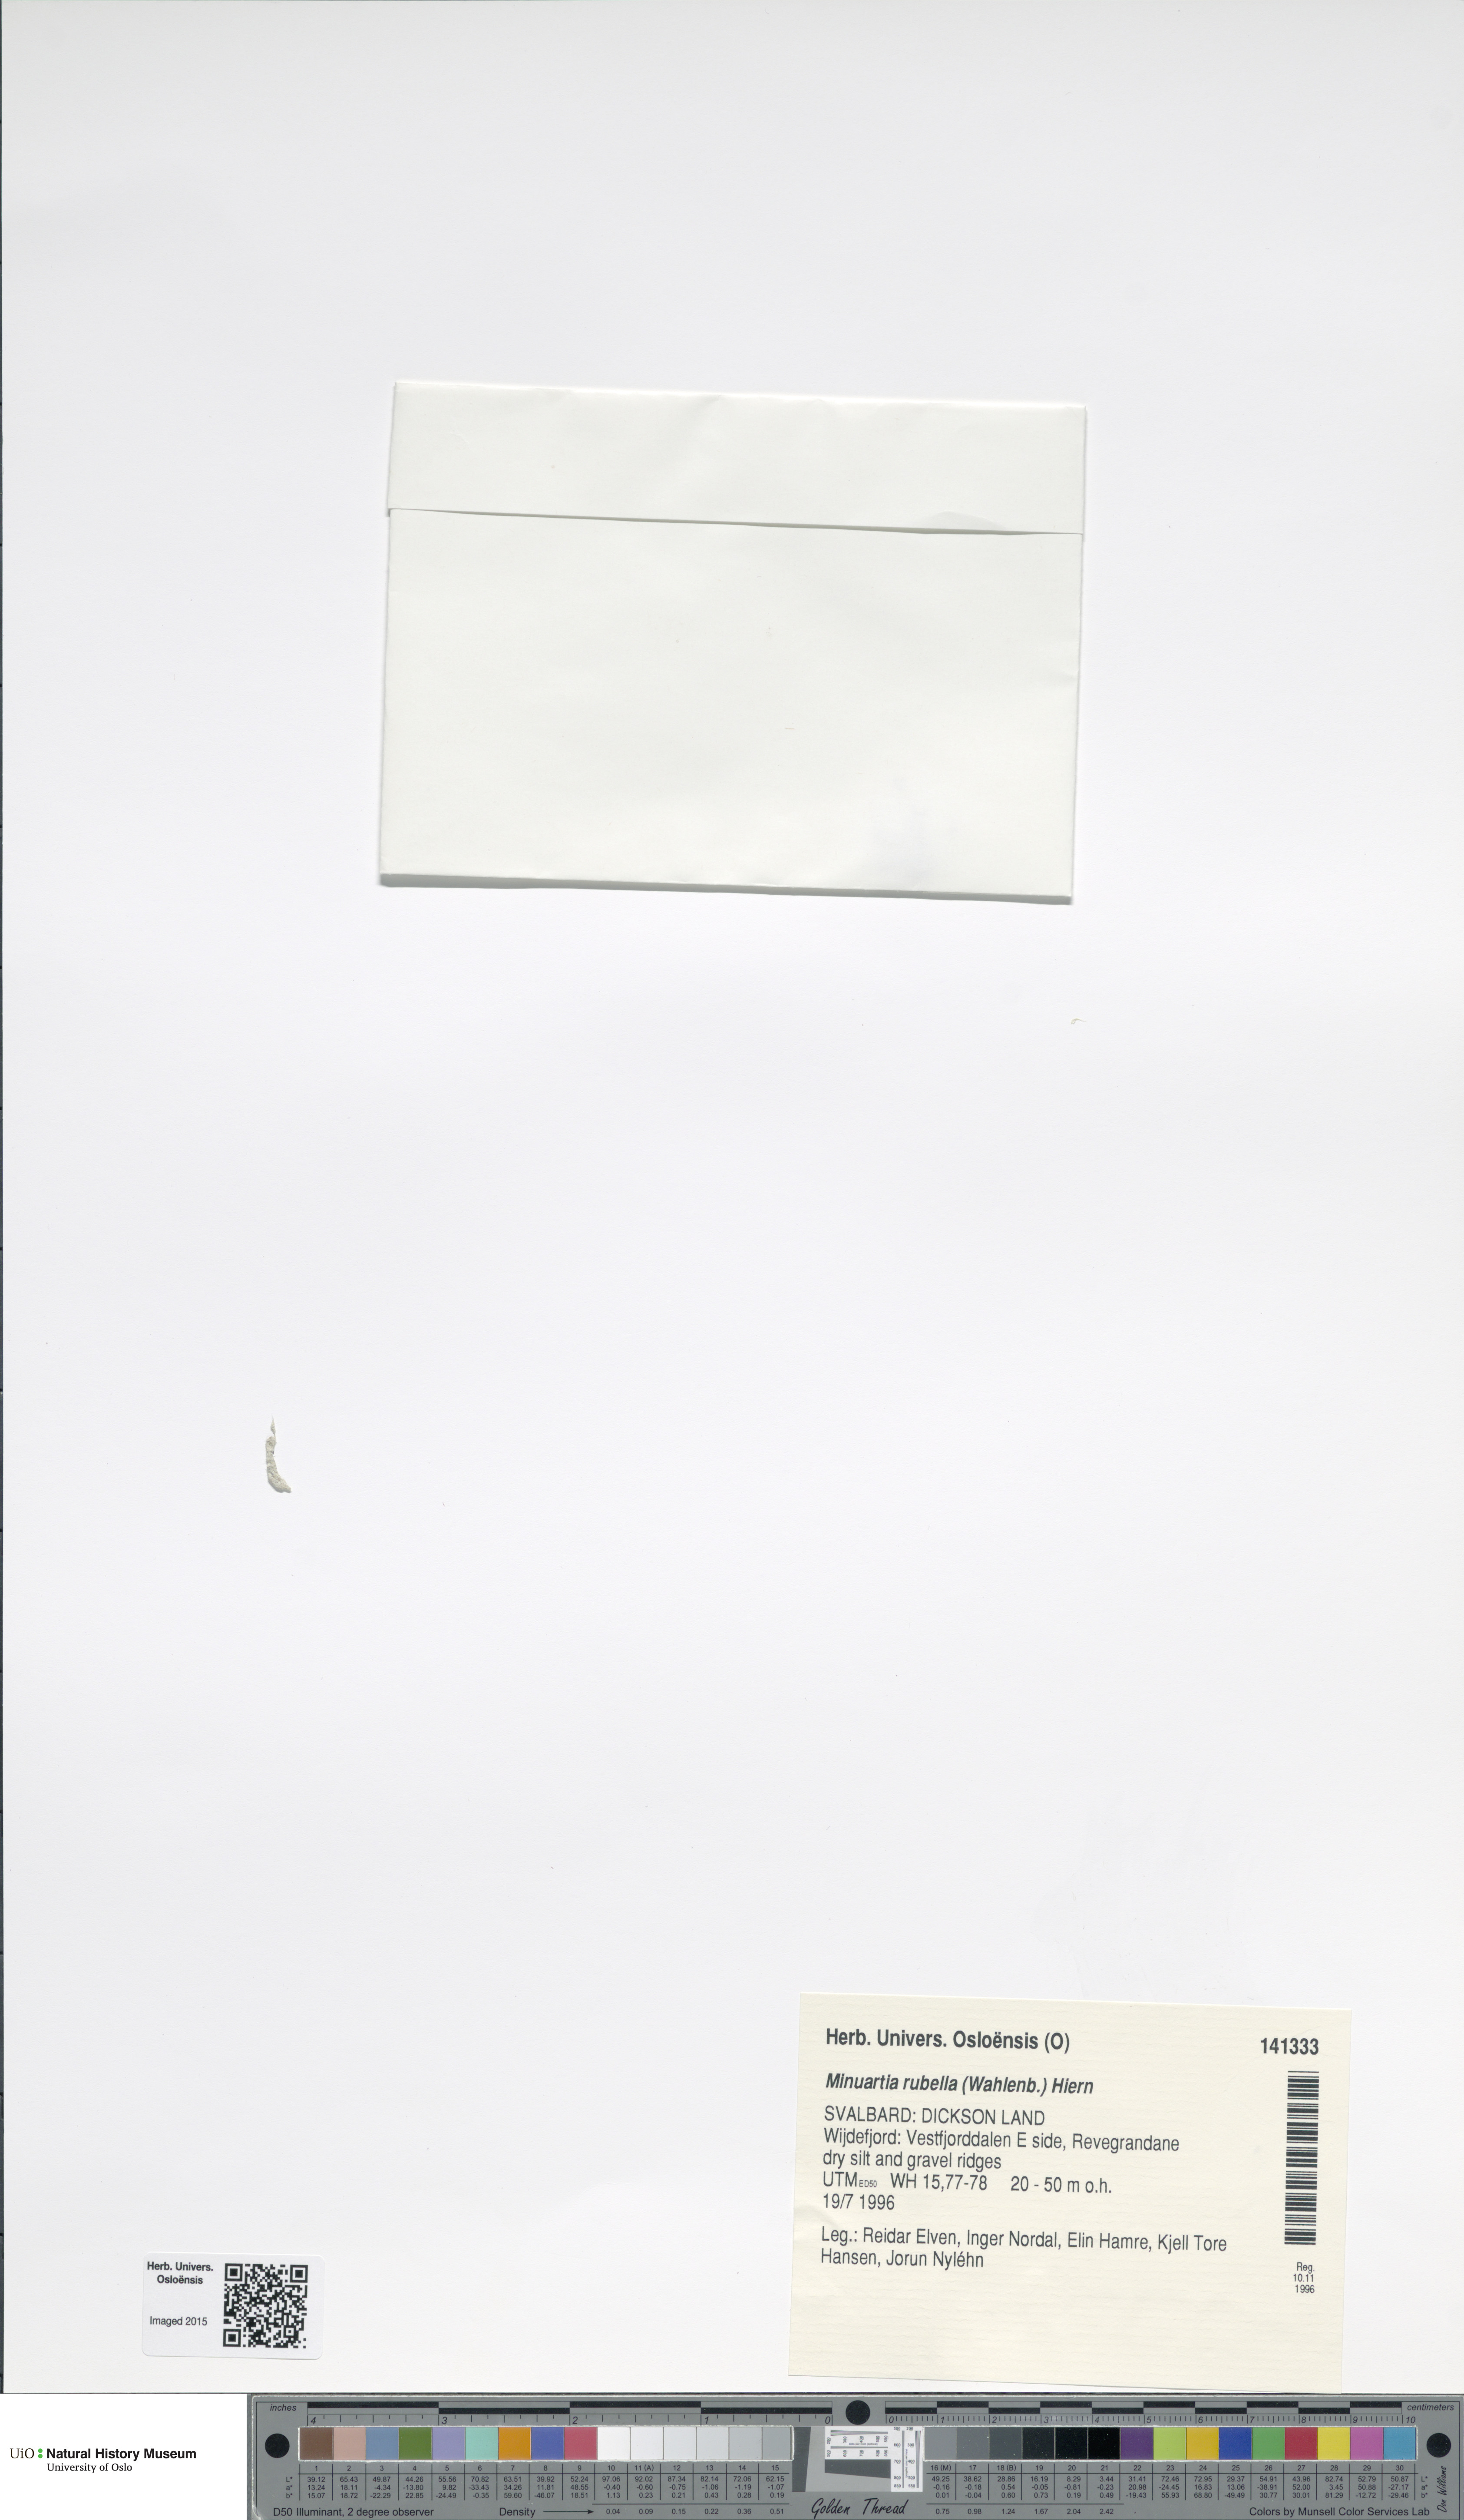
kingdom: Plantae
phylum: Tracheophyta
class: Magnoliopsida
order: Caryophyllales
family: Caryophyllaceae
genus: Sabulina
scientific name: Sabulina rubella
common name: Beautiful sandwort
